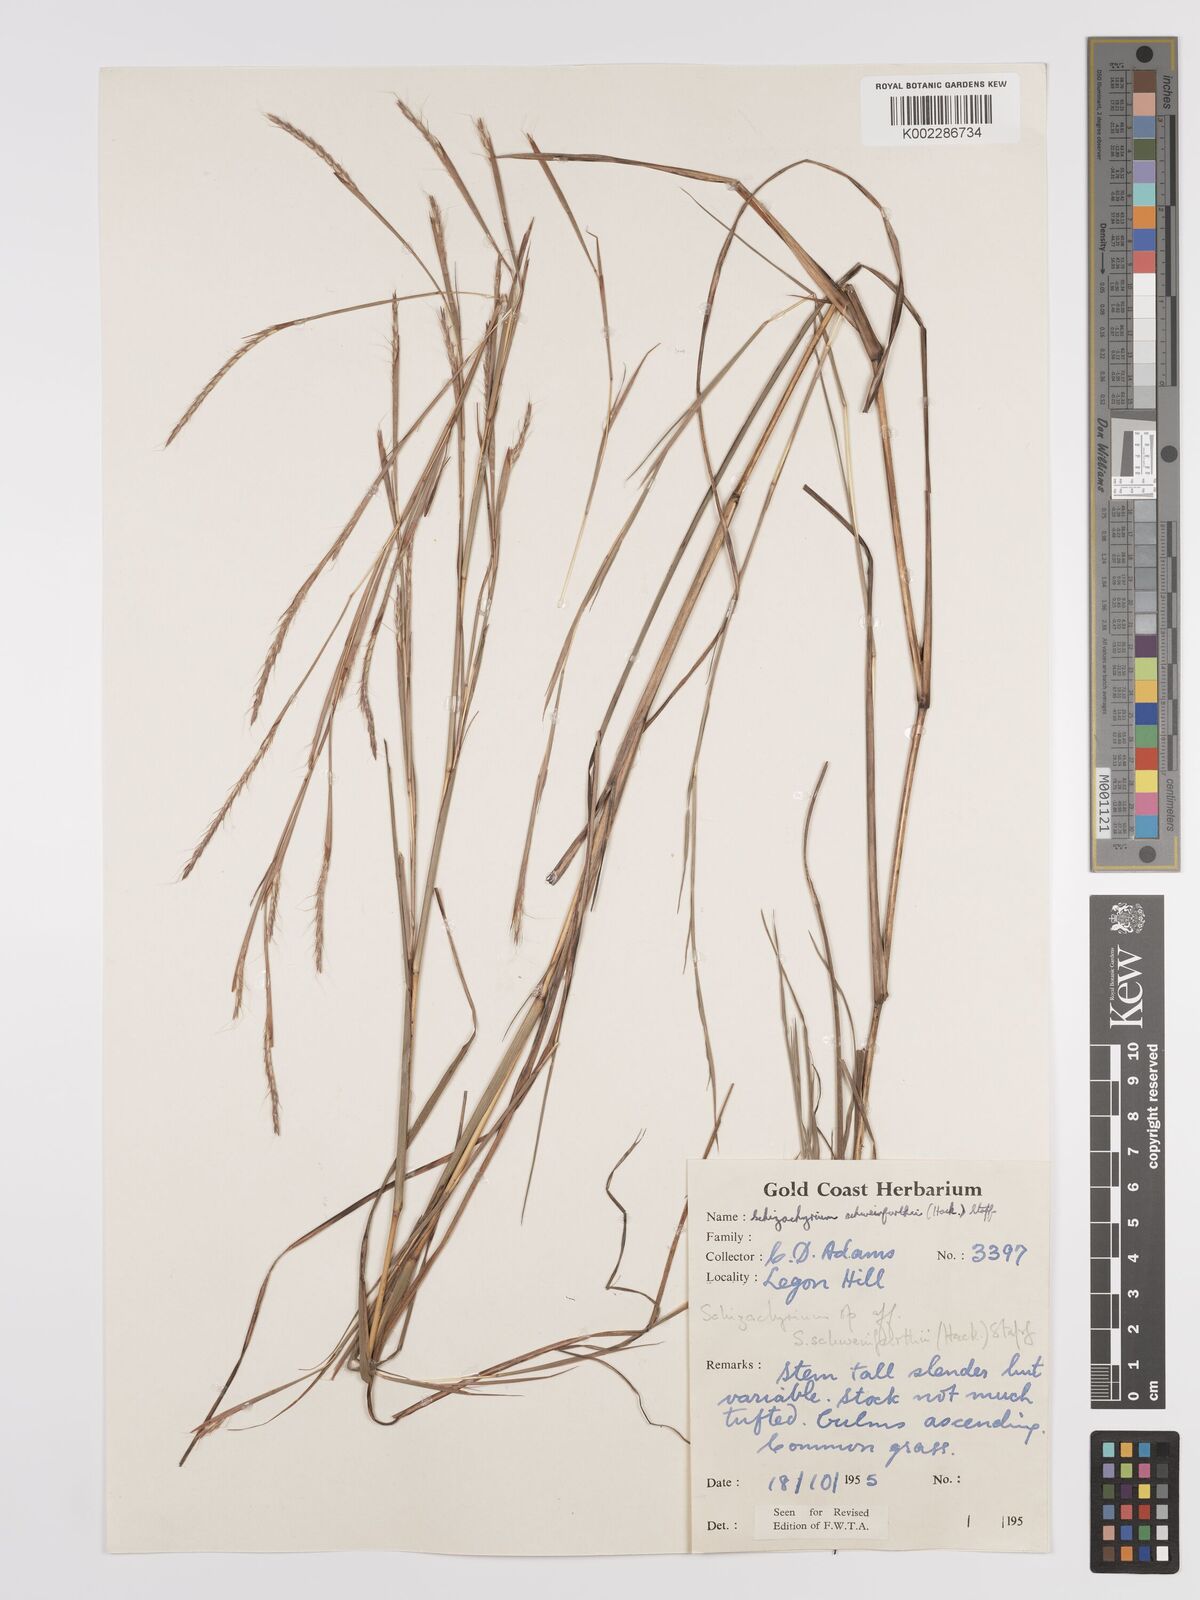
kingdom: Plantae
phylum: Tracheophyta
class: Liliopsida
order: Poales
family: Poaceae
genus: Andropogon
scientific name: Andropogon schweinfurthii
